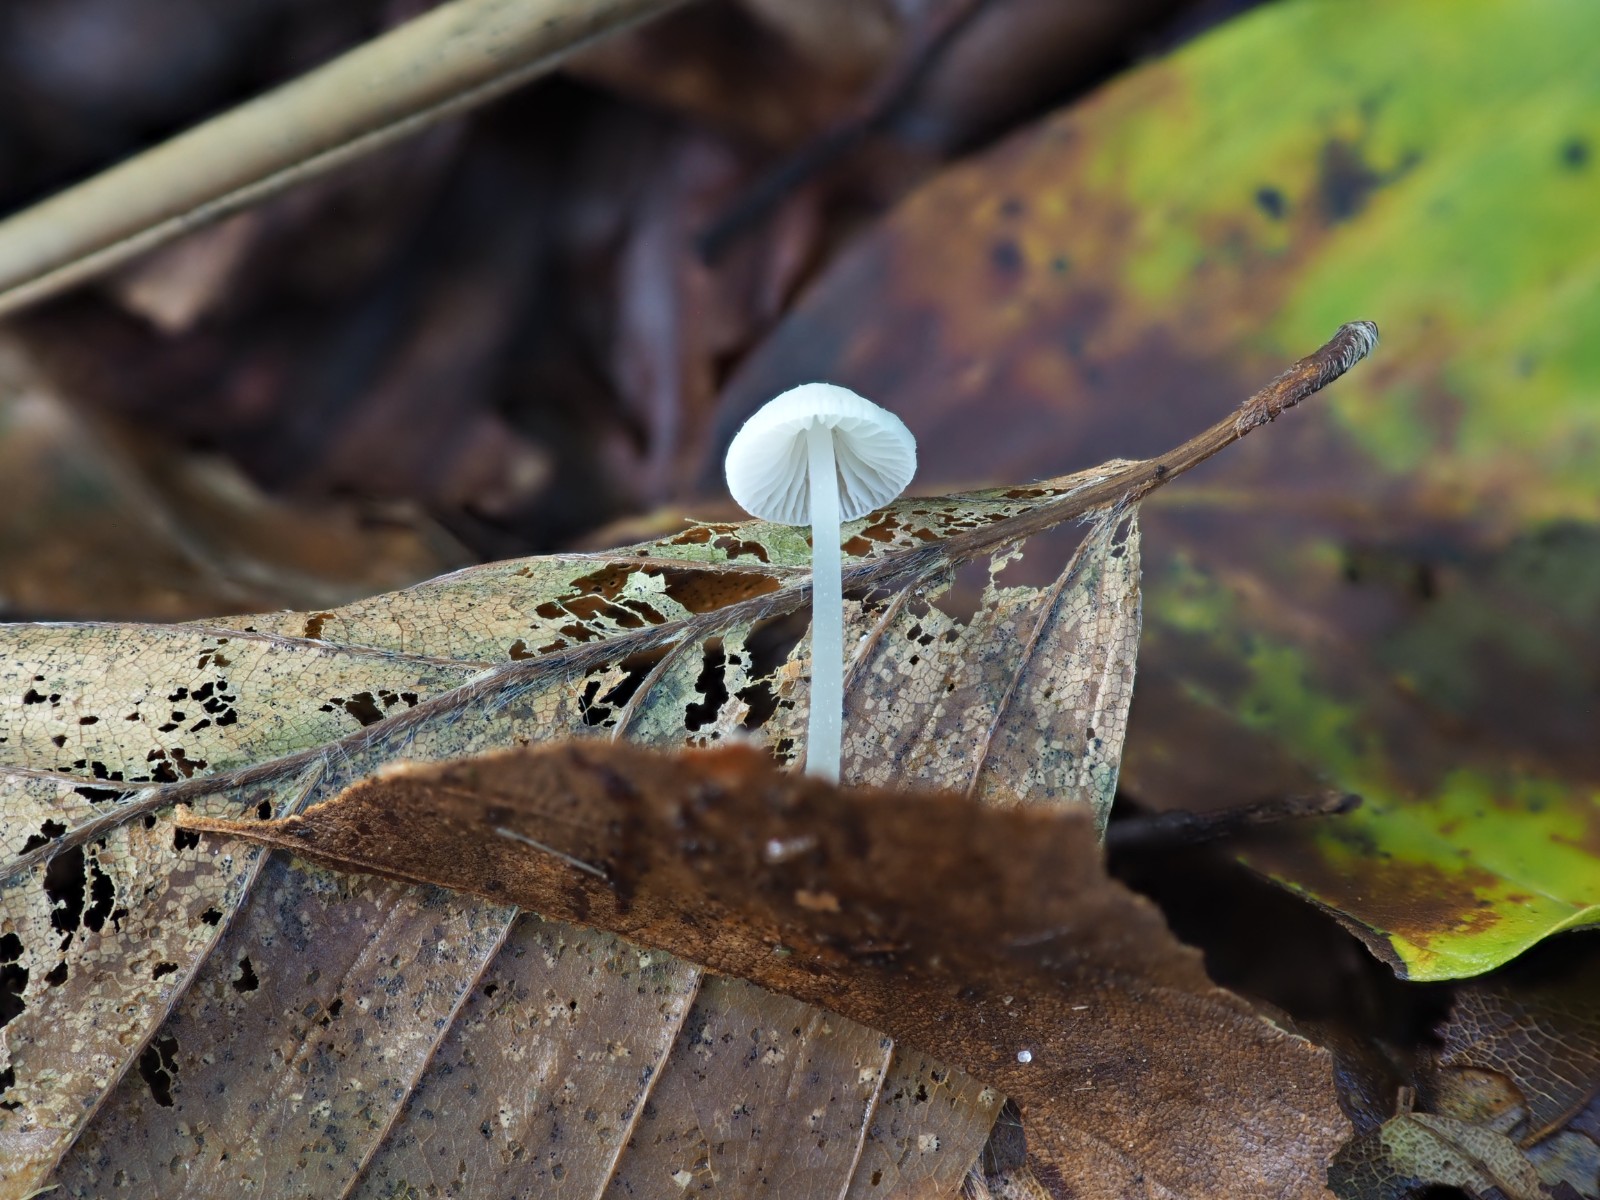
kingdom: Fungi
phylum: Basidiomycota
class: Agaricomycetes
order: Agaricales
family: Mycenaceae
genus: Mycena
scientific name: Mycena stylobates
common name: fureskivet huesvamp
